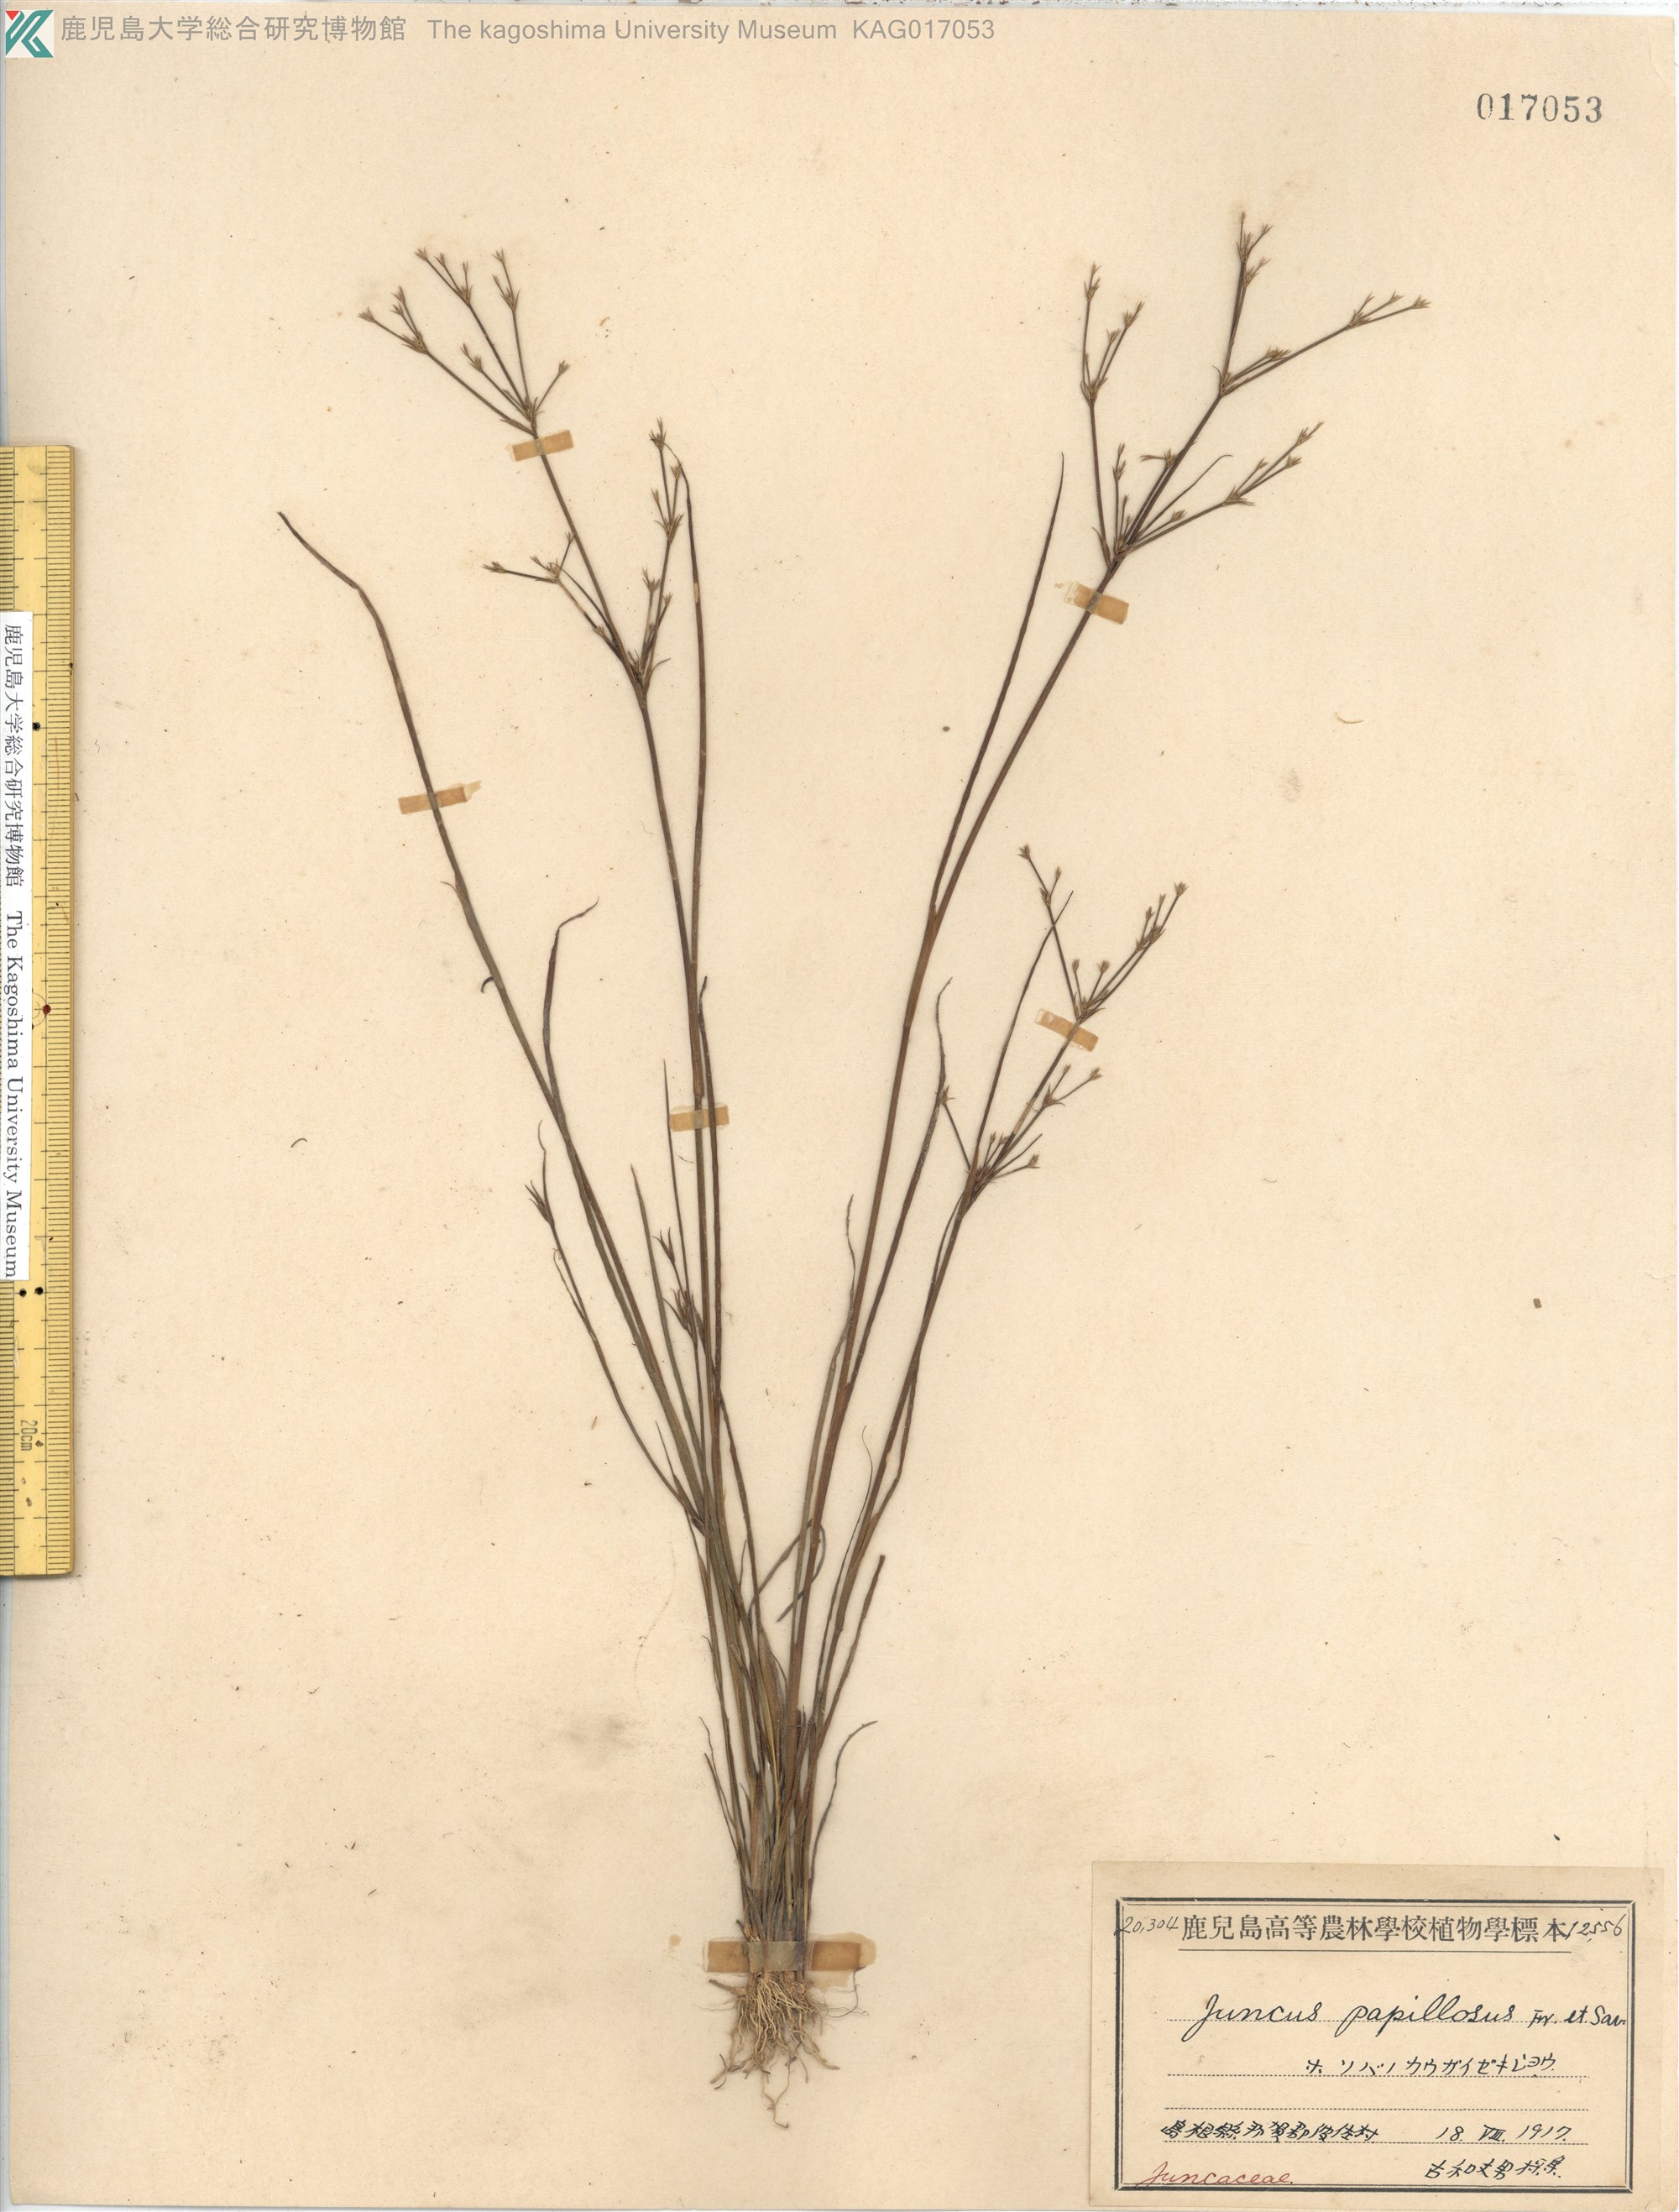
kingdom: Plantae
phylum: Tracheophyta
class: Liliopsida
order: Poales
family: Juncaceae
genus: Juncus
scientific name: Juncus papillosus
